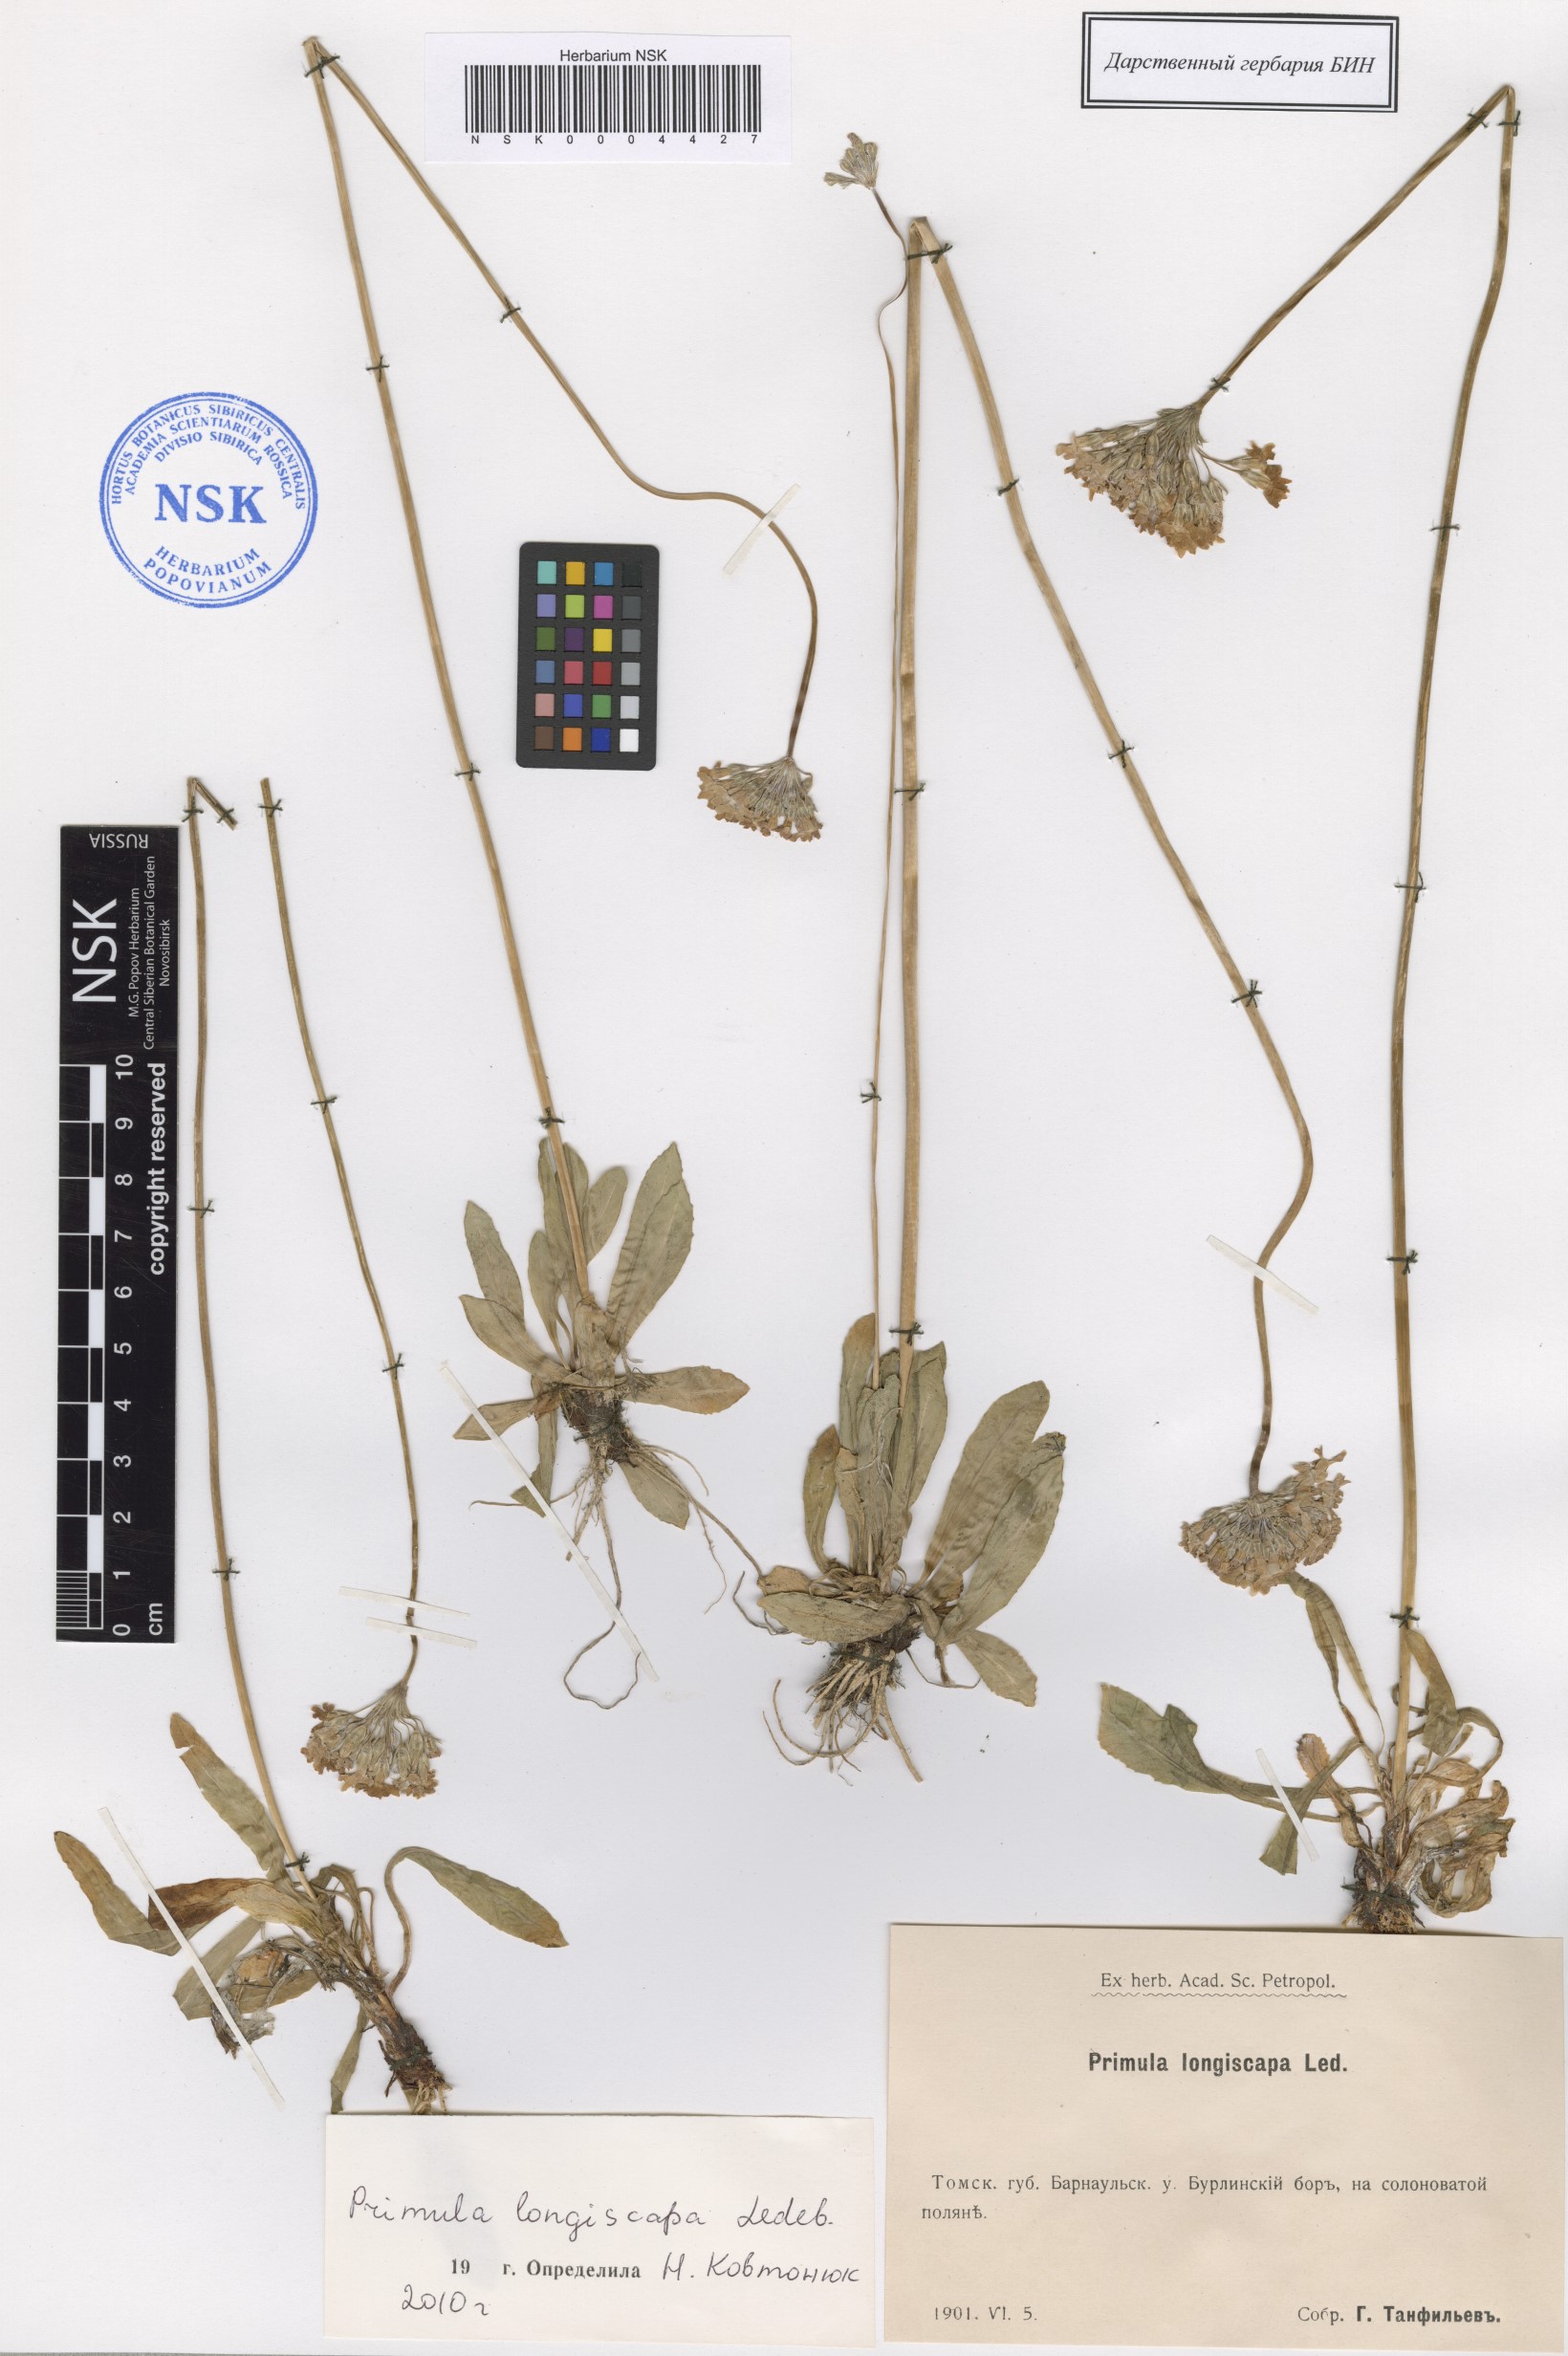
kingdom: Plantae
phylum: Tracheophyta
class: Magnoliopsida
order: Ericales
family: Primulaceae
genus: Primula
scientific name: Primula longiscapa
